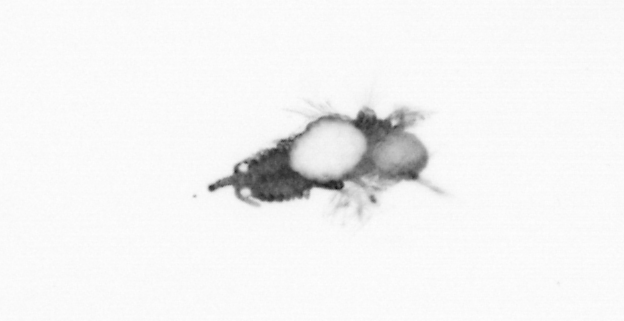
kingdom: Animalia
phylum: Annelida
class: Polychaeta
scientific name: Polychaeta
